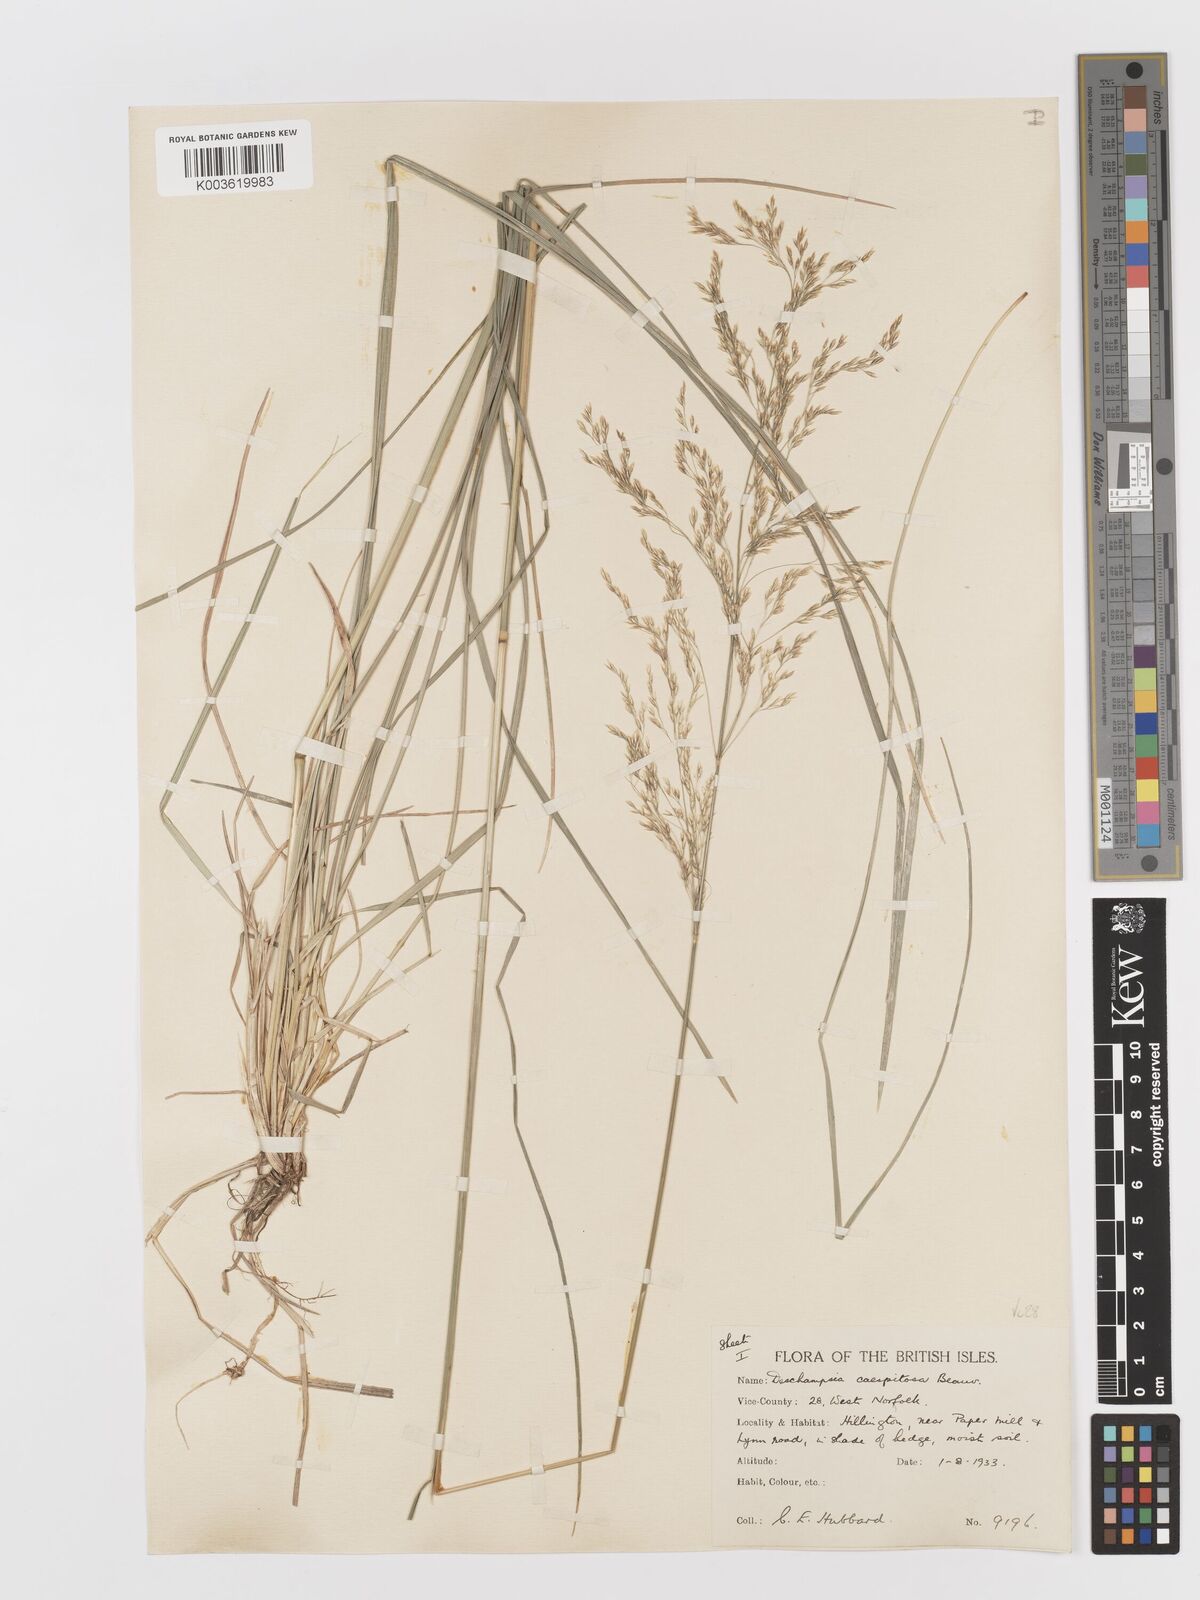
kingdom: Plantae
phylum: Tracheophyta
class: Liliopsida
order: Poales
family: Poaceae
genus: Deschampsia
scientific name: Deschampsia cespitosa
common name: Tufted hair-grass
